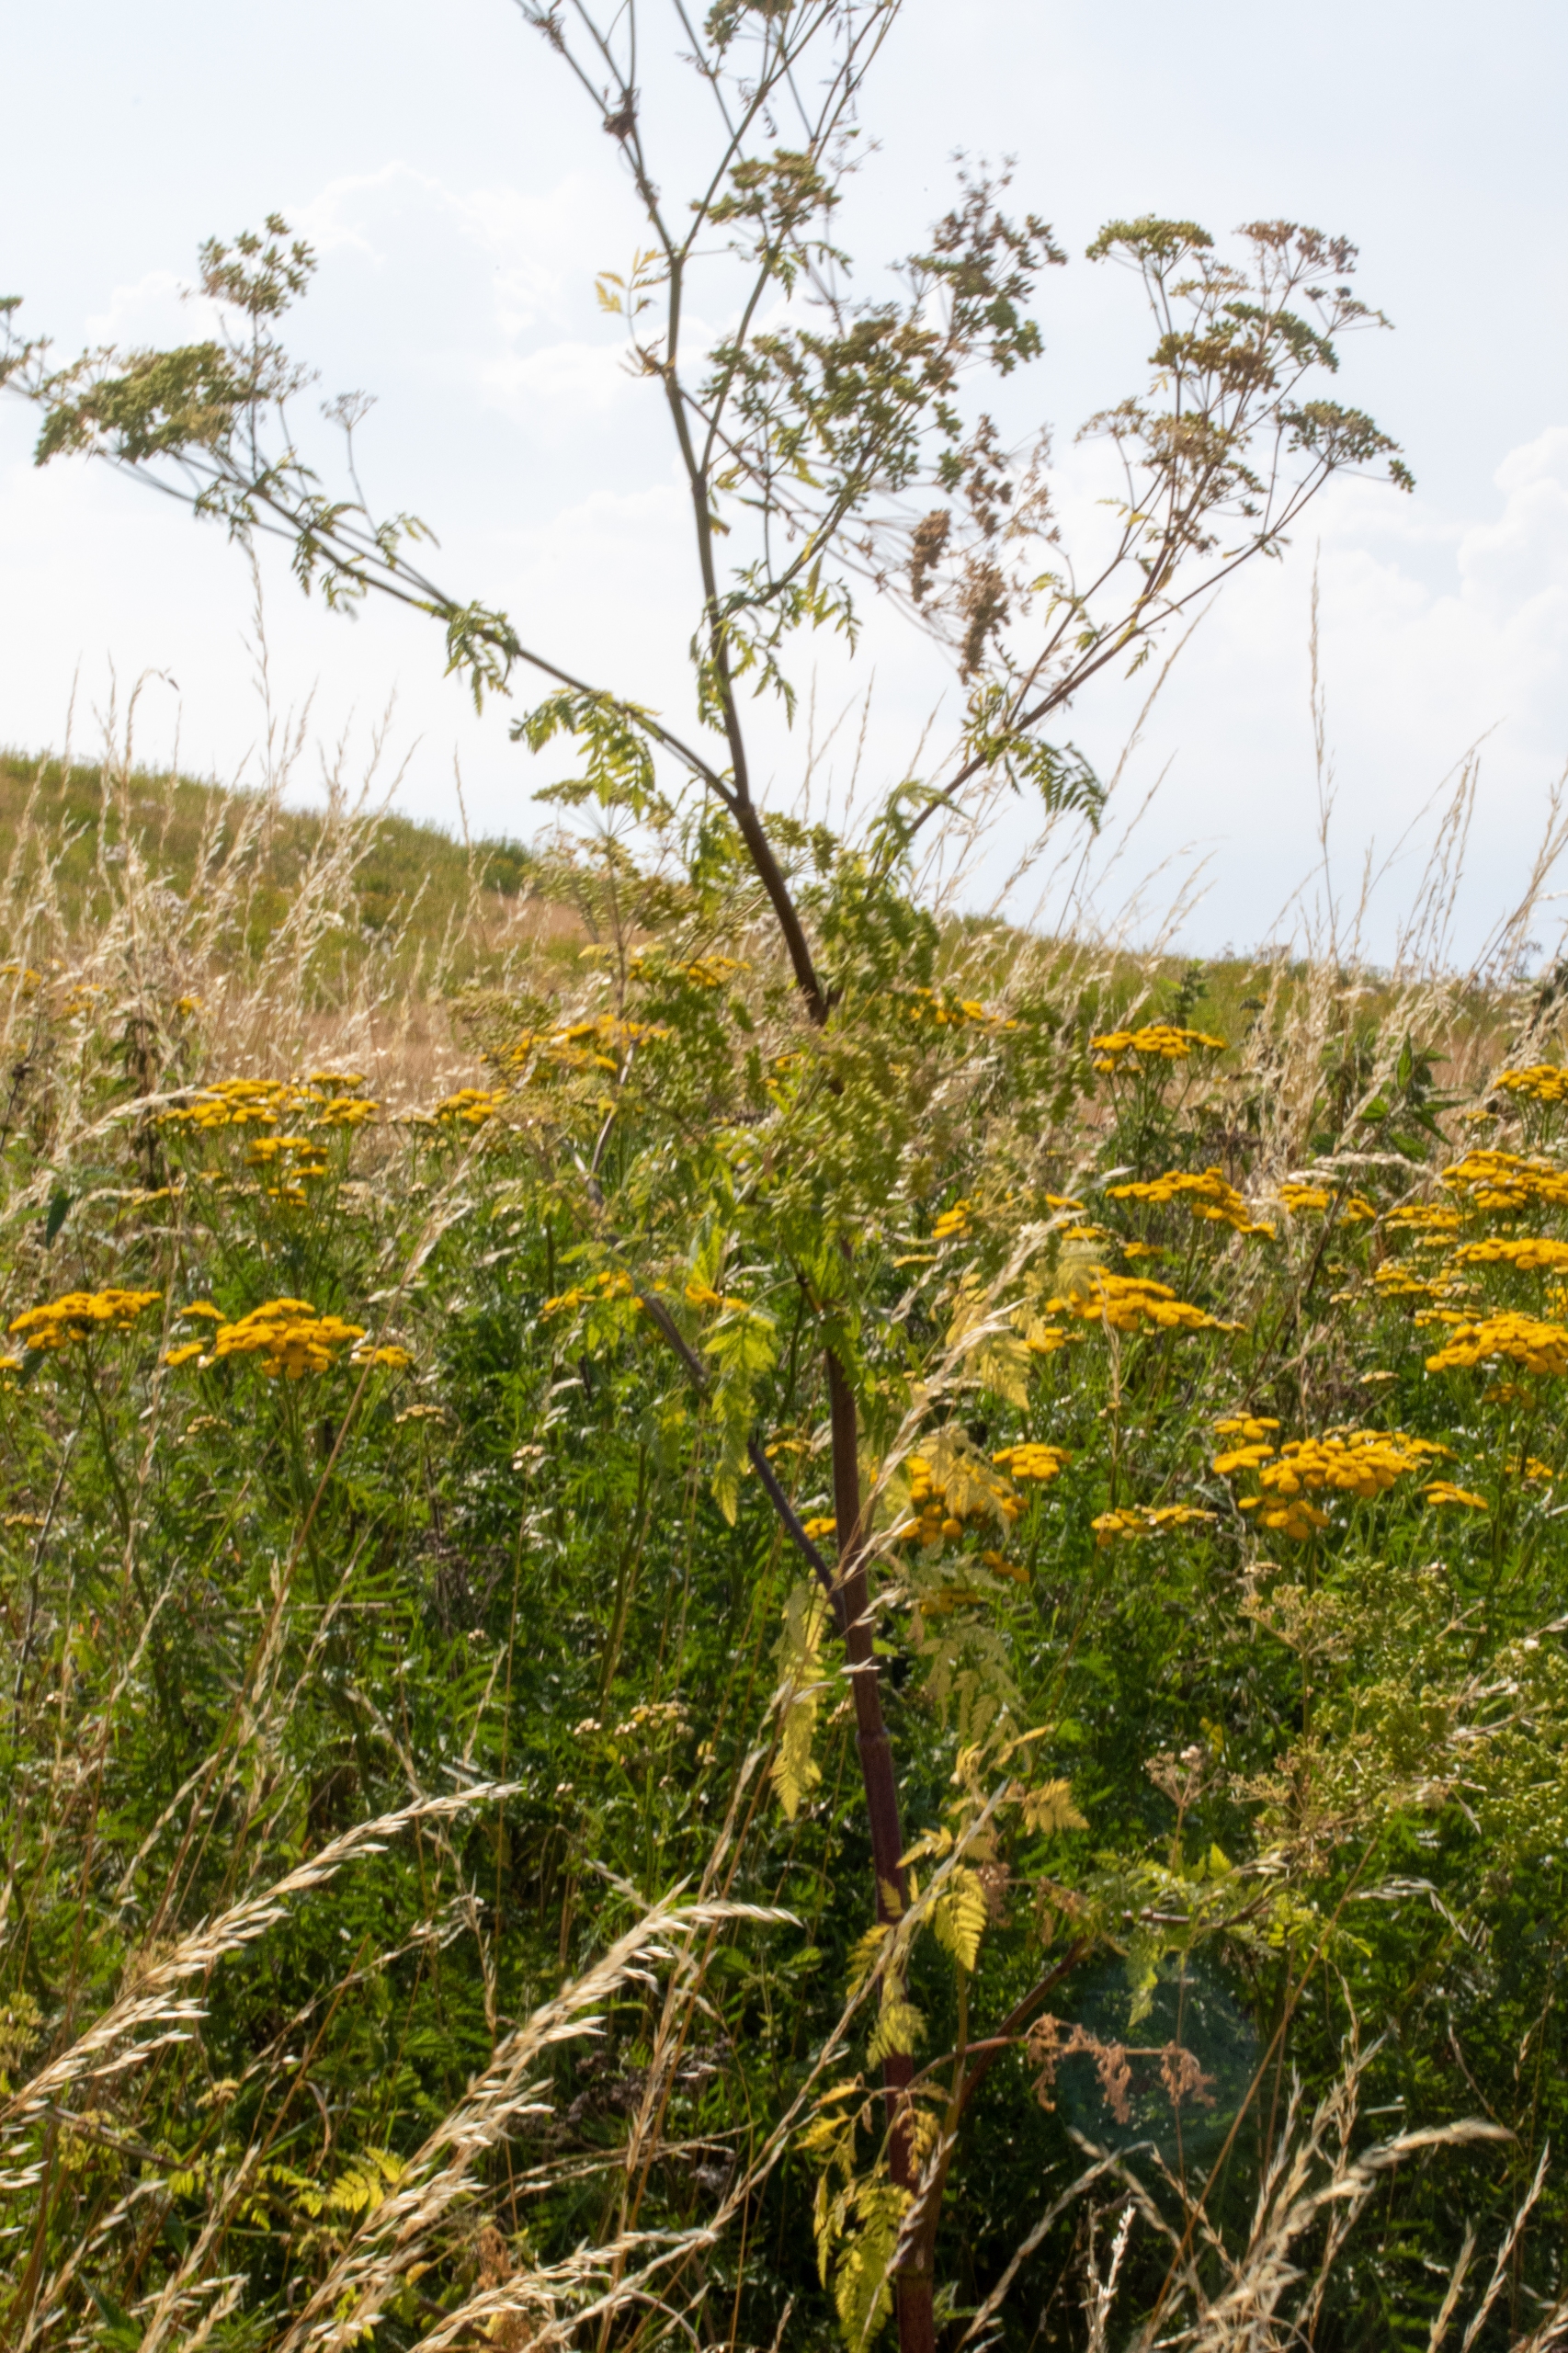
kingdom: Plantae
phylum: Tracheophyta
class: Magnoliopsida
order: Apiales
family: Apiaceae
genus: Conium
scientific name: Conium maculatum
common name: Skarntyde
